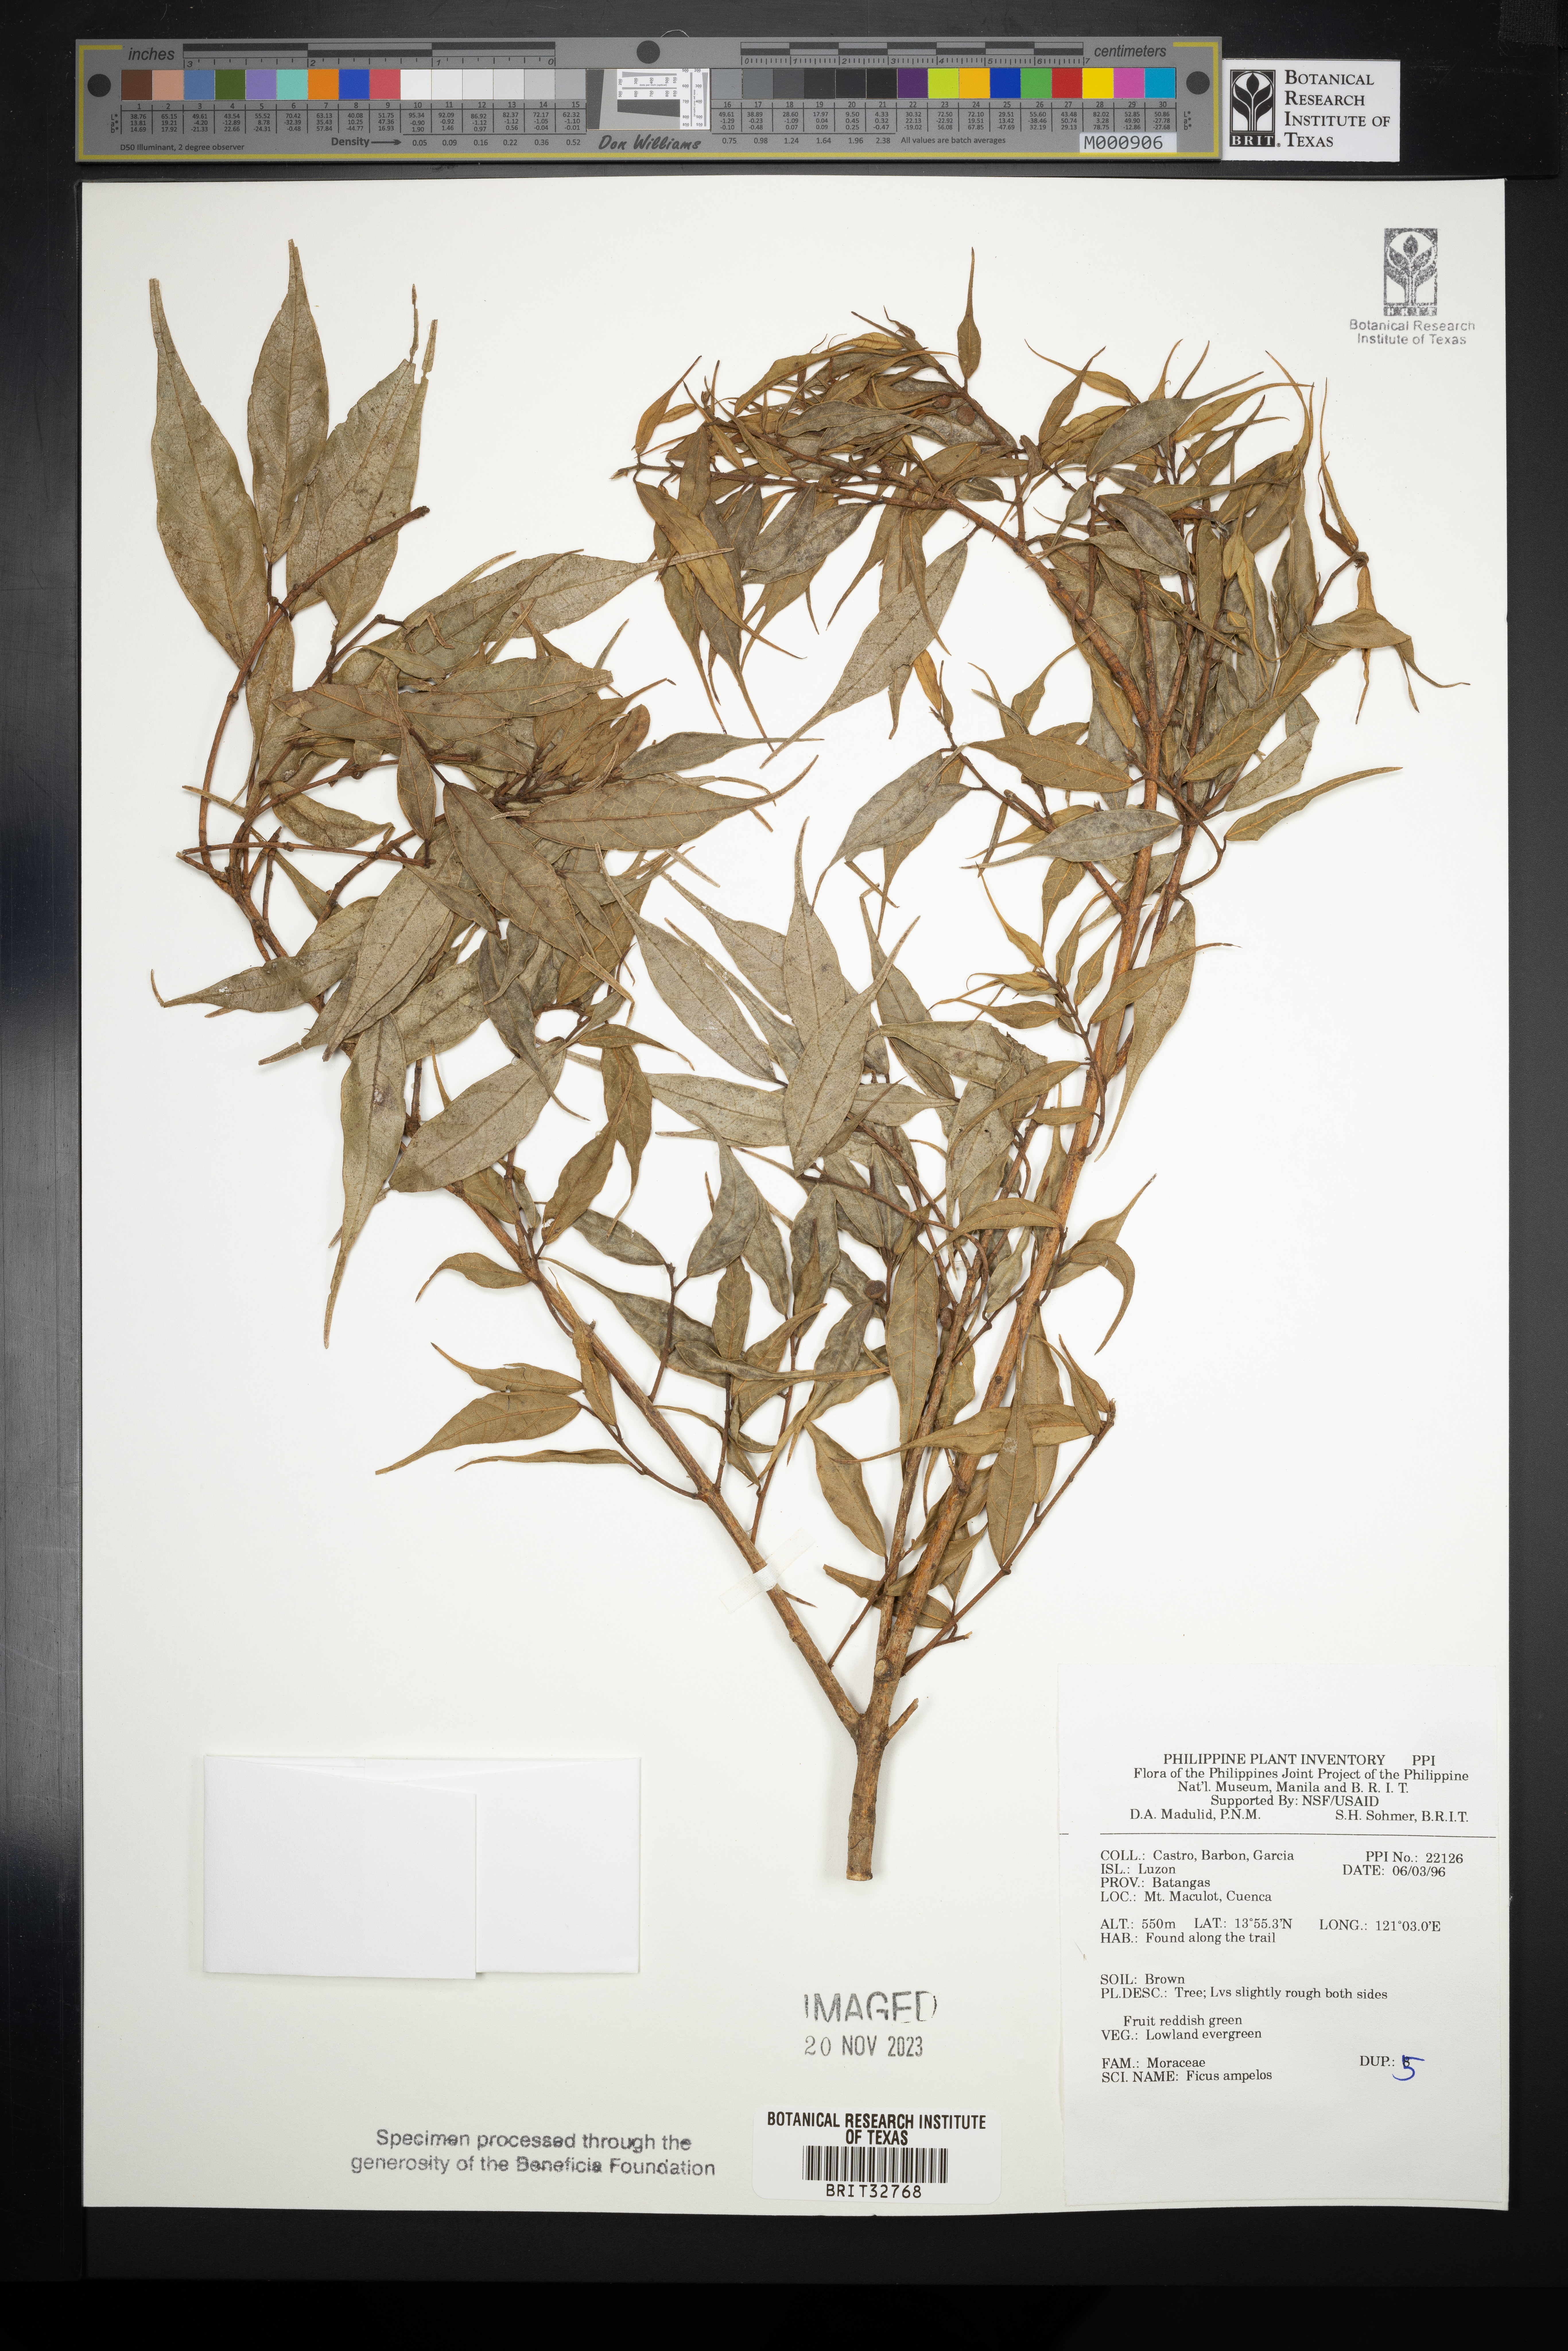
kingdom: Plantae
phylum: Tracheophyta
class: Magnoliopsida
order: Rosales
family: Moraceae
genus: Ficus
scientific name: Ficus ampelos
